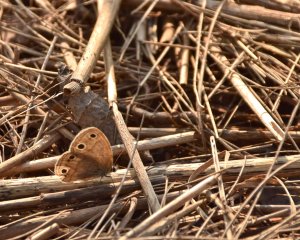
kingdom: Animalia
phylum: Arthropoda
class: Insecta
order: Lepidoptera
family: Nymphalidae
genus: Euptychia
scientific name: Euptychia cymela
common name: Little Wood Satyr
